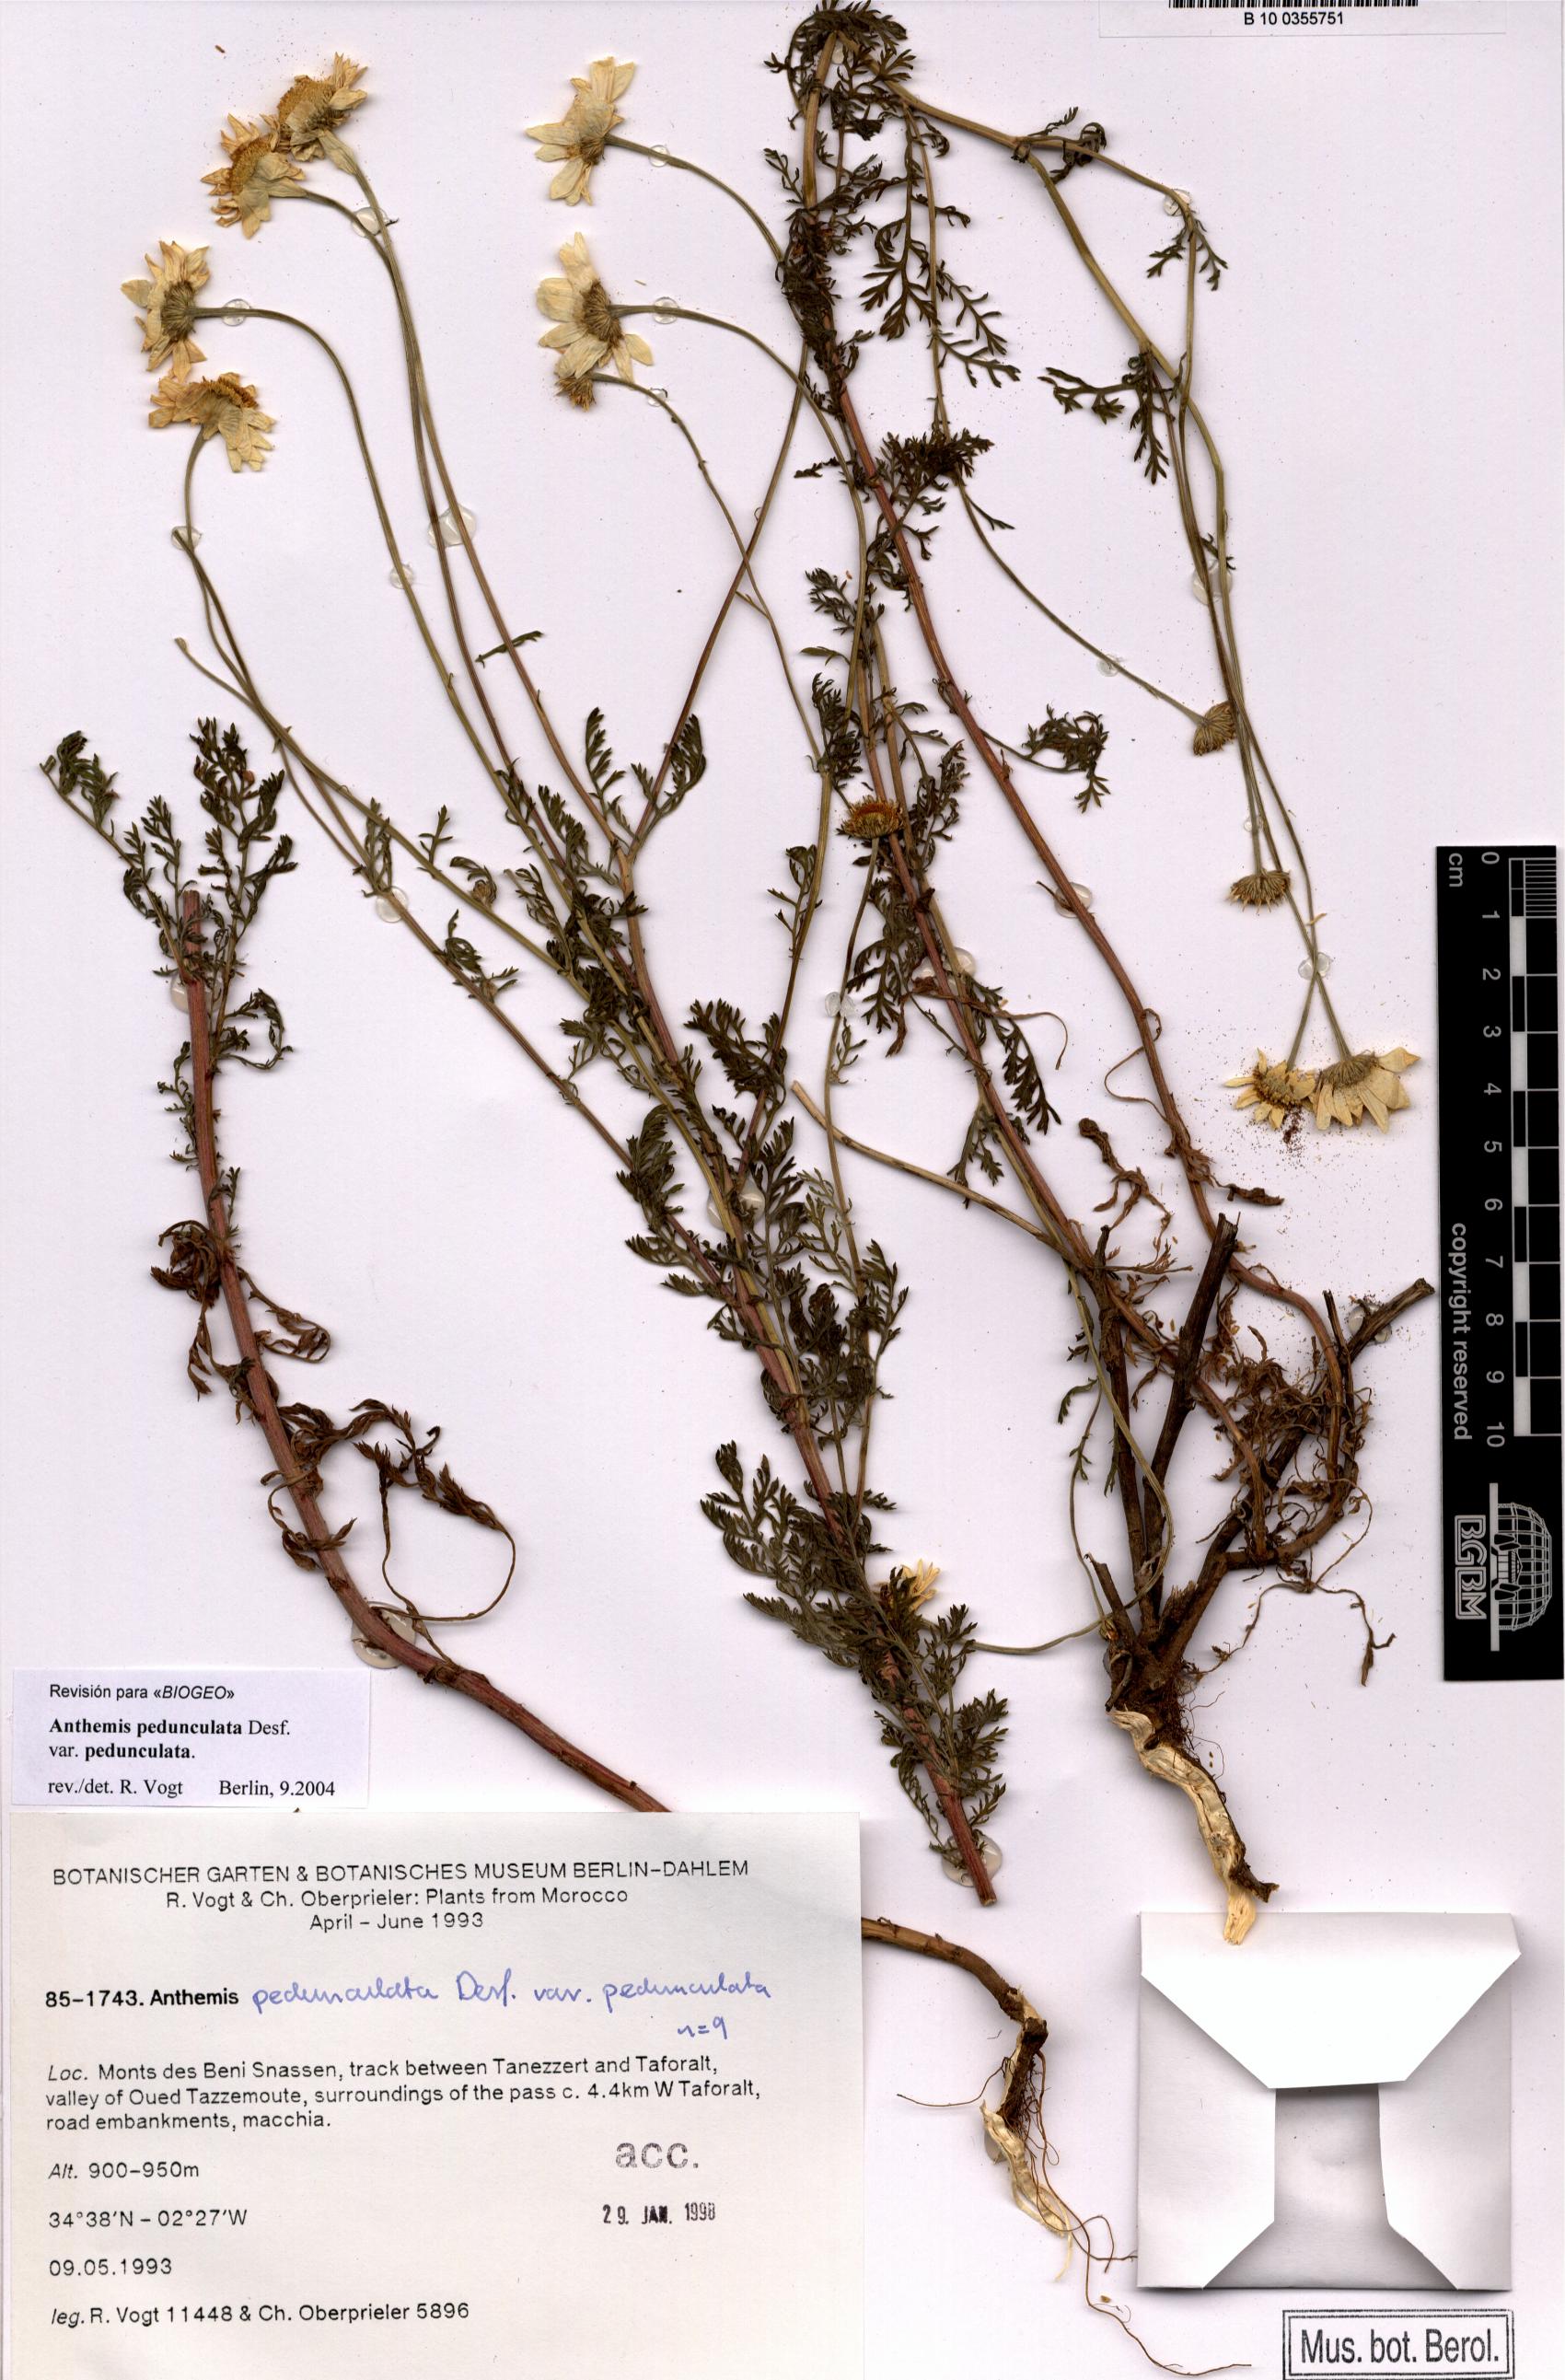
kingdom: Plantae
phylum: Tracheophyta
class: Magnoliopsida
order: Asterales
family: Asteraceae
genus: Anthemis
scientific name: Anthemis pedunculata
